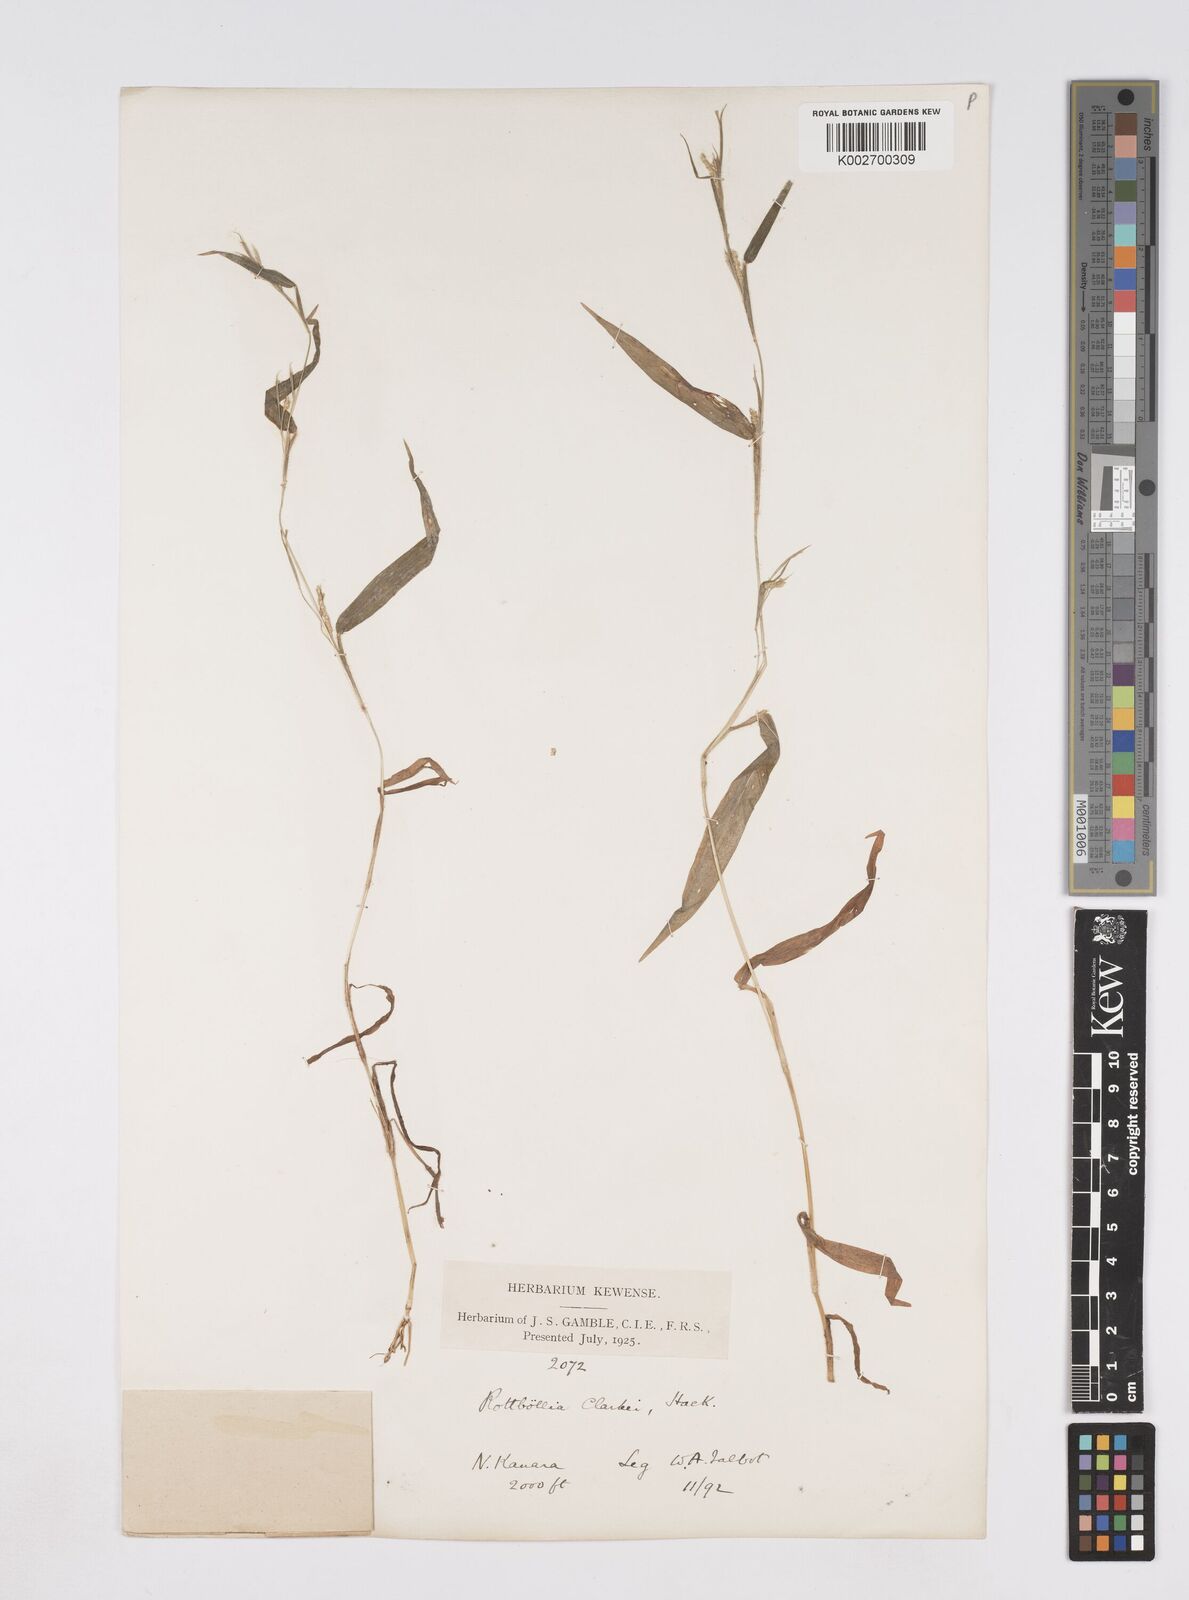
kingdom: Plantae
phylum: Tracheophyta
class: Liliopsida
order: Poales
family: Poaceae
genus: Rottboellia
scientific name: Rottboellia clarkei
